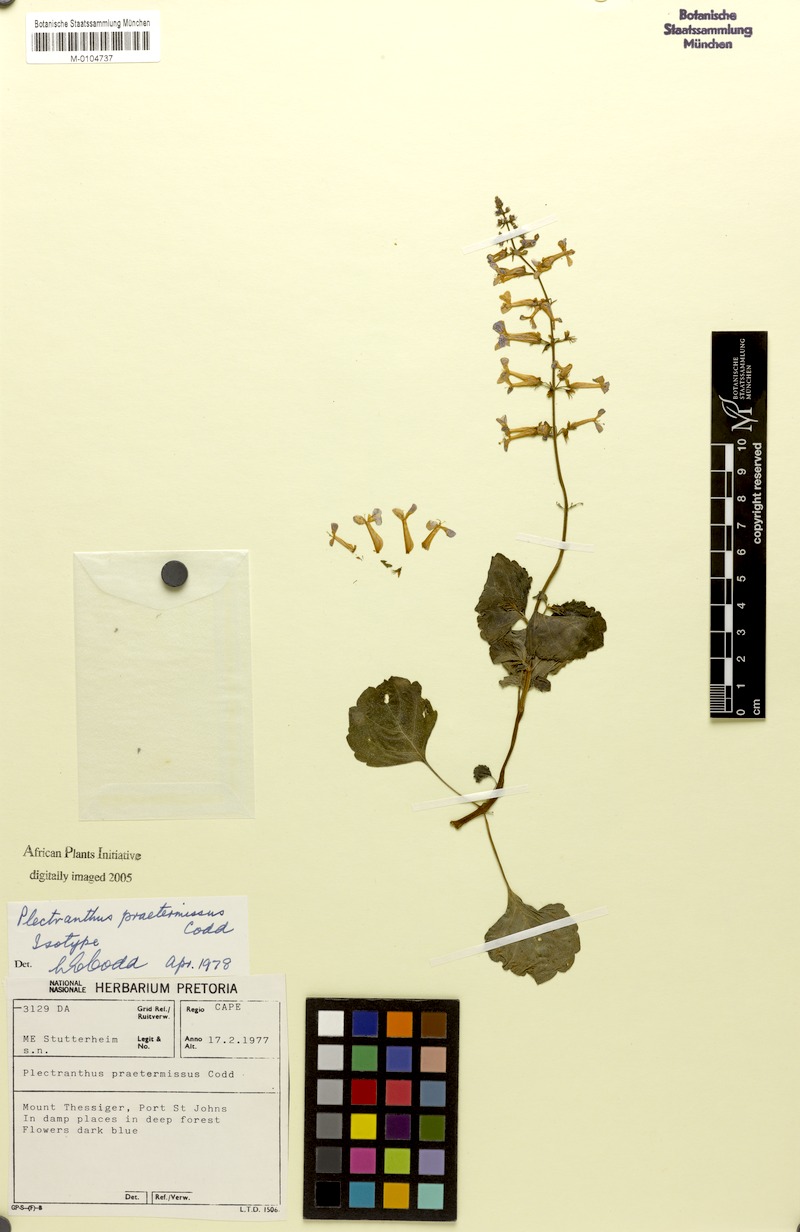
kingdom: Plantae
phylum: Tracheophyta
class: Magnoliopsida
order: Lamiales
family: Lamiaceae
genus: Plectranthus
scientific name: Plectranthus praetermissus
